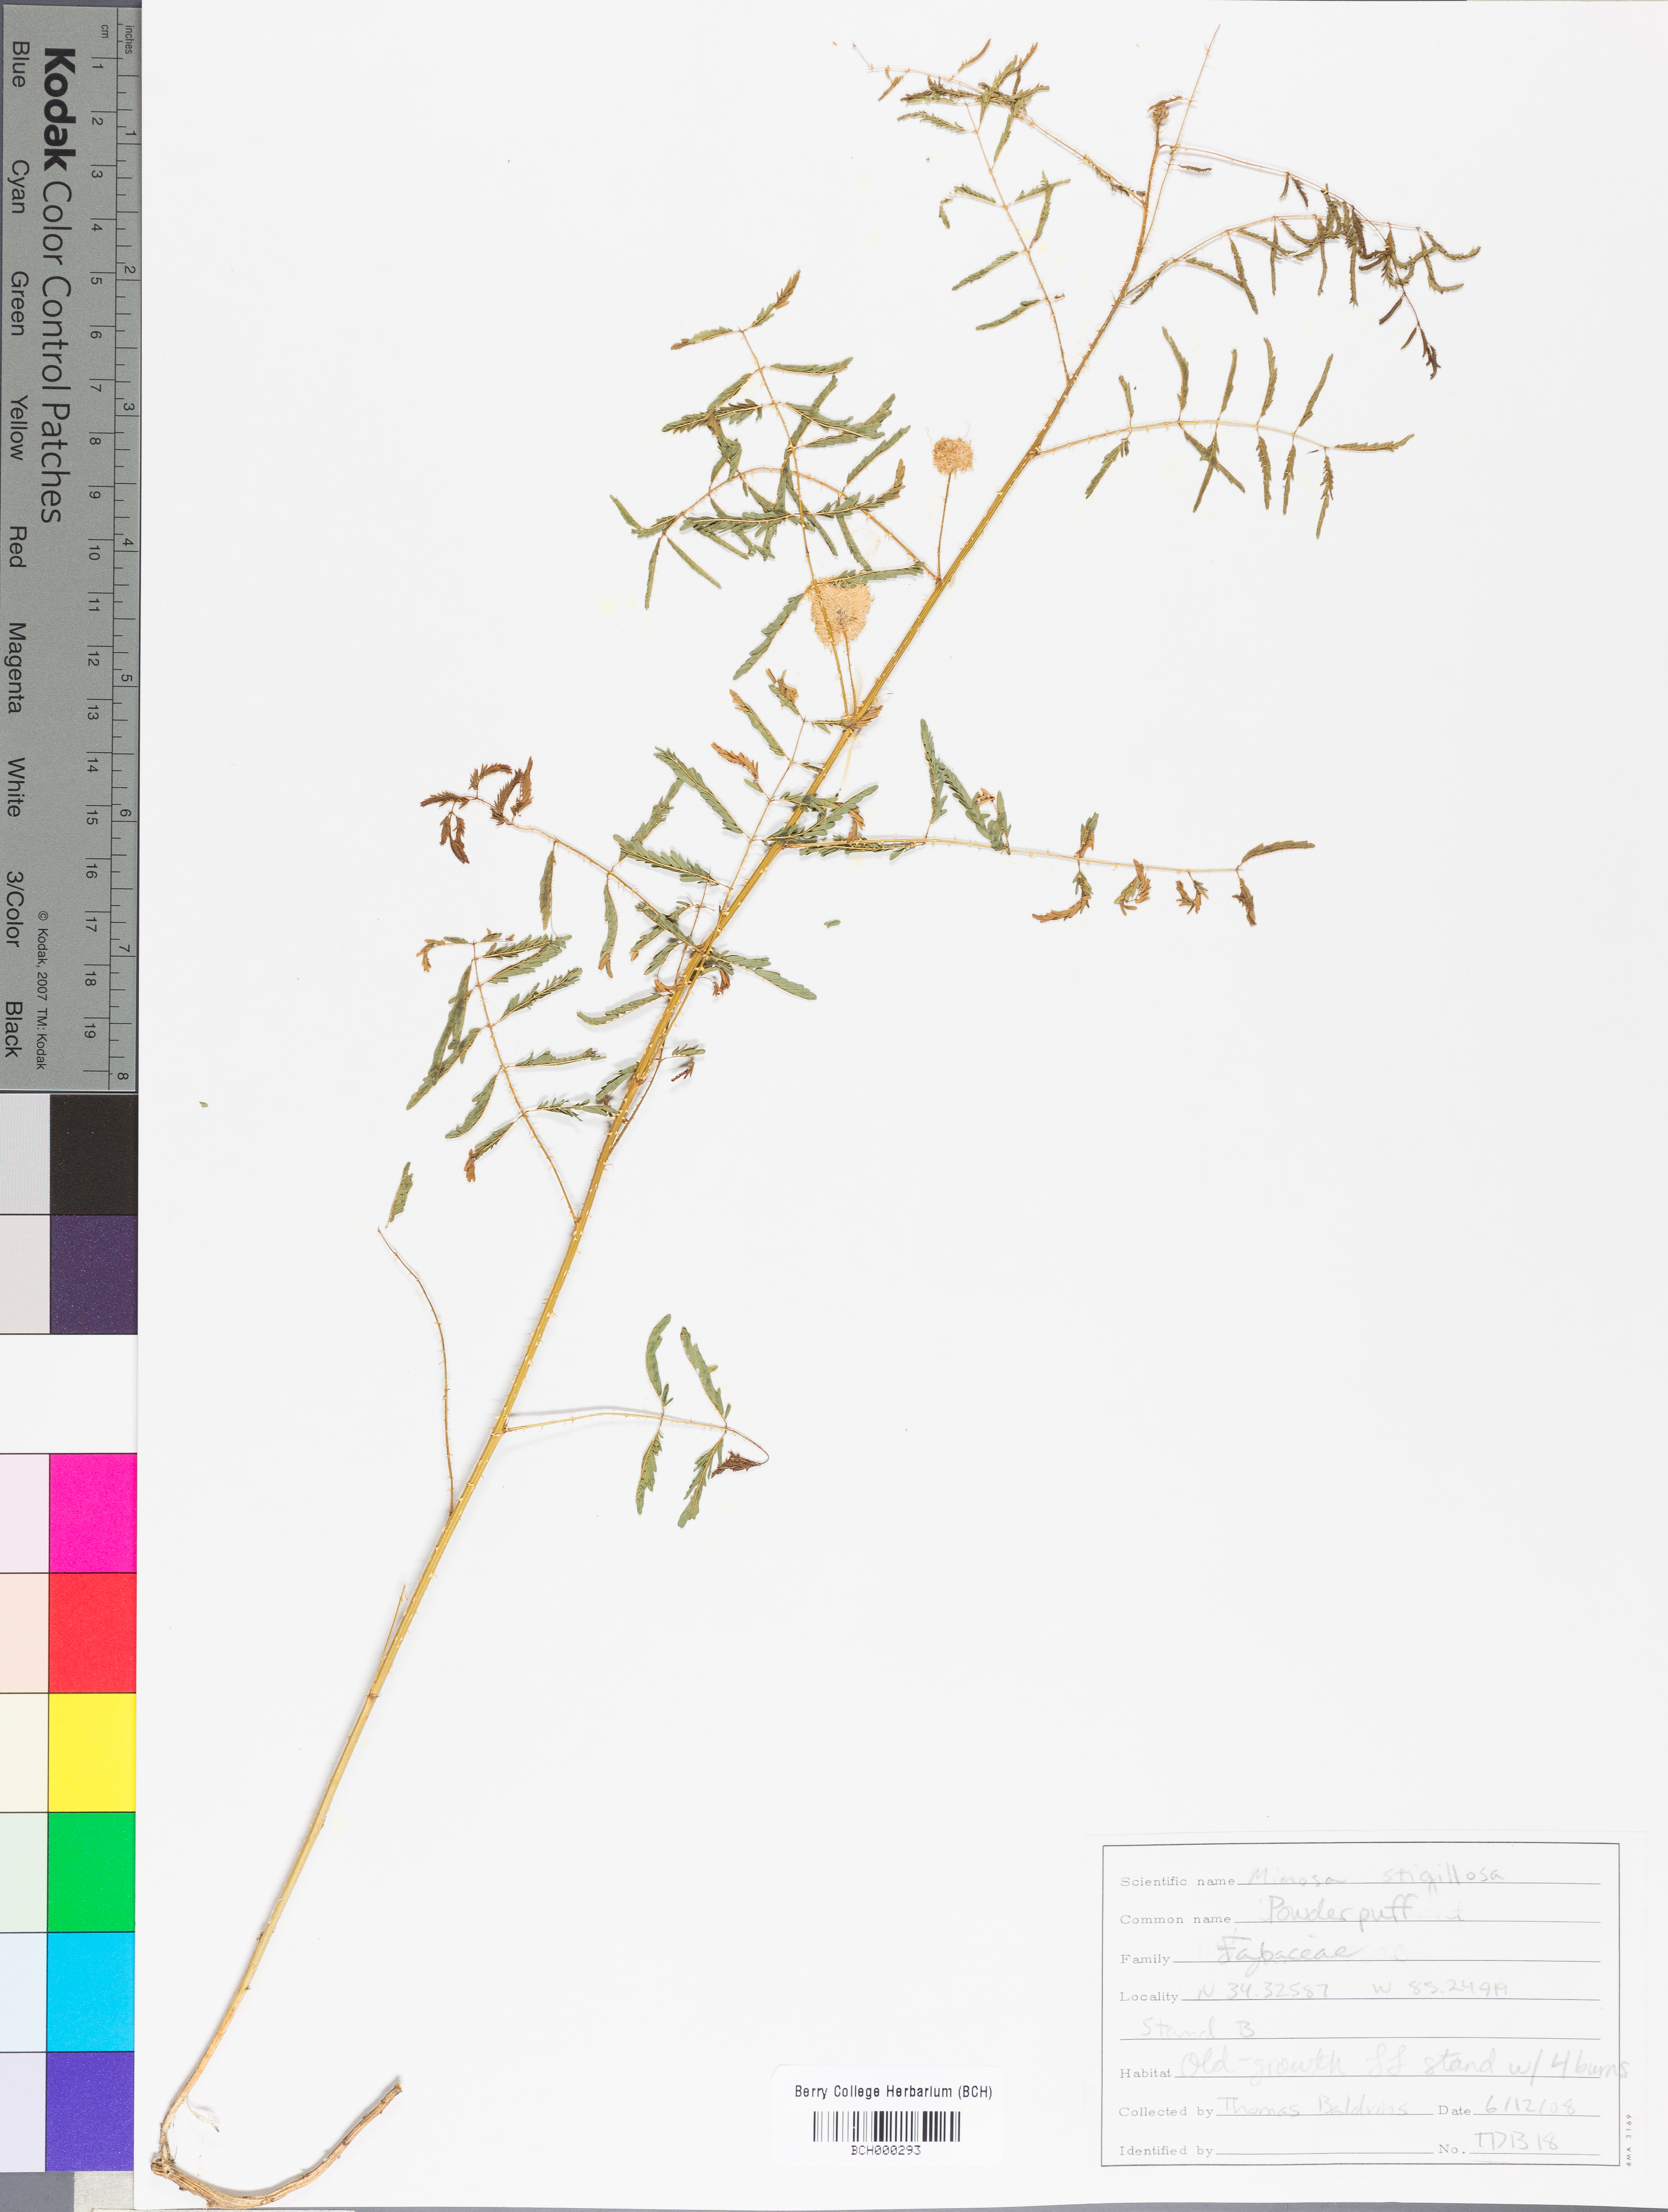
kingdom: Plantae
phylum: Tracheophyta
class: Magnoliopsida
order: Fabales
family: Fabaceae
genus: Mimosa
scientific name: Mimosa strigillosa
